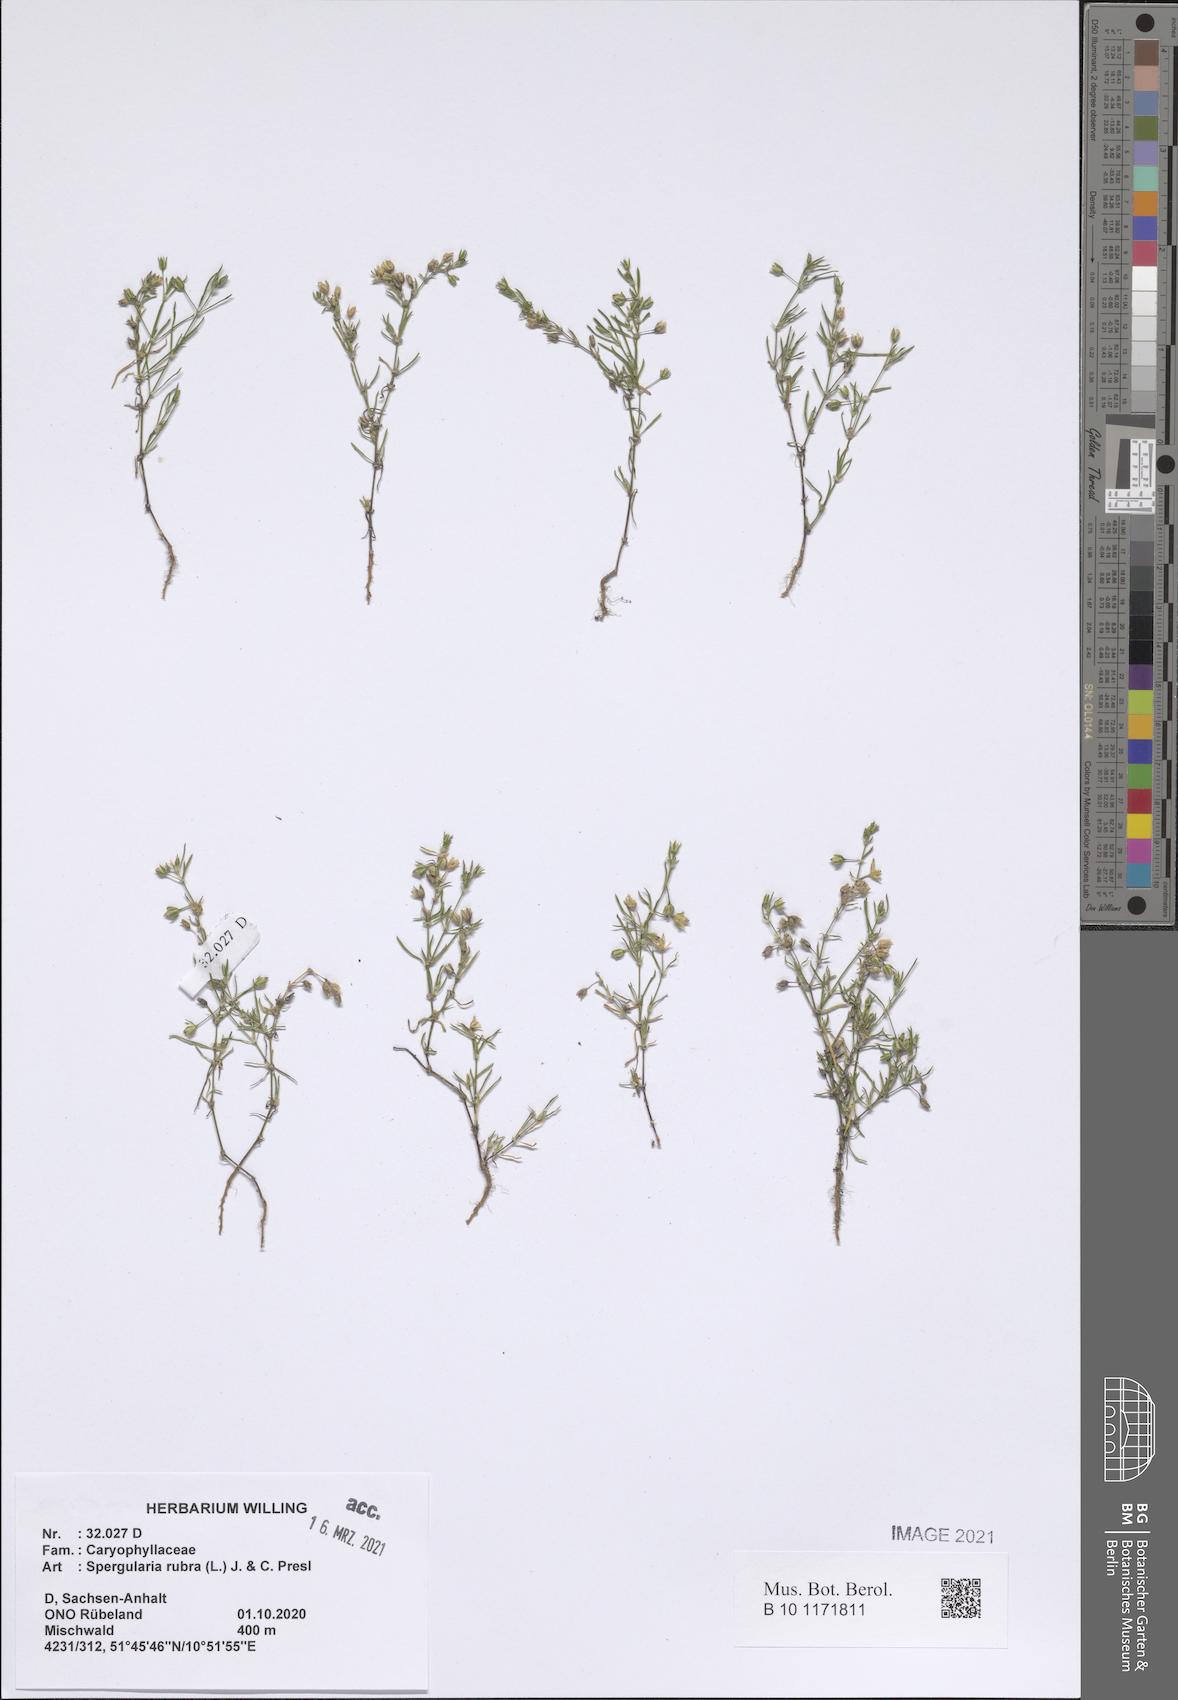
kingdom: Plantae
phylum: Tracheophyta
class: Magnoliopsida
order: Caryophyllales
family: Caryophyllaceae
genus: Spergularia
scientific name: Spergularia rubra
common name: Red sand-spurrey
